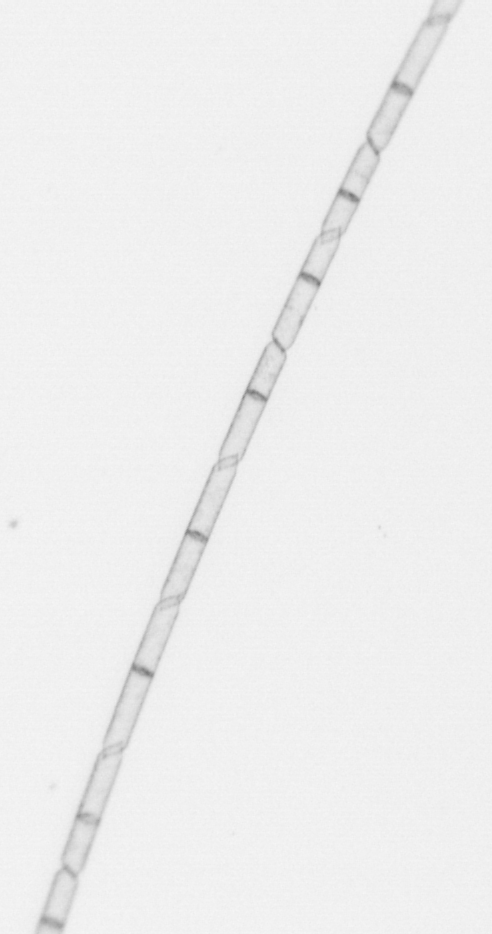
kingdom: Chromista
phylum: Ochrophyta
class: Bacillariophyceae
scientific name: Bacillariophyceae
